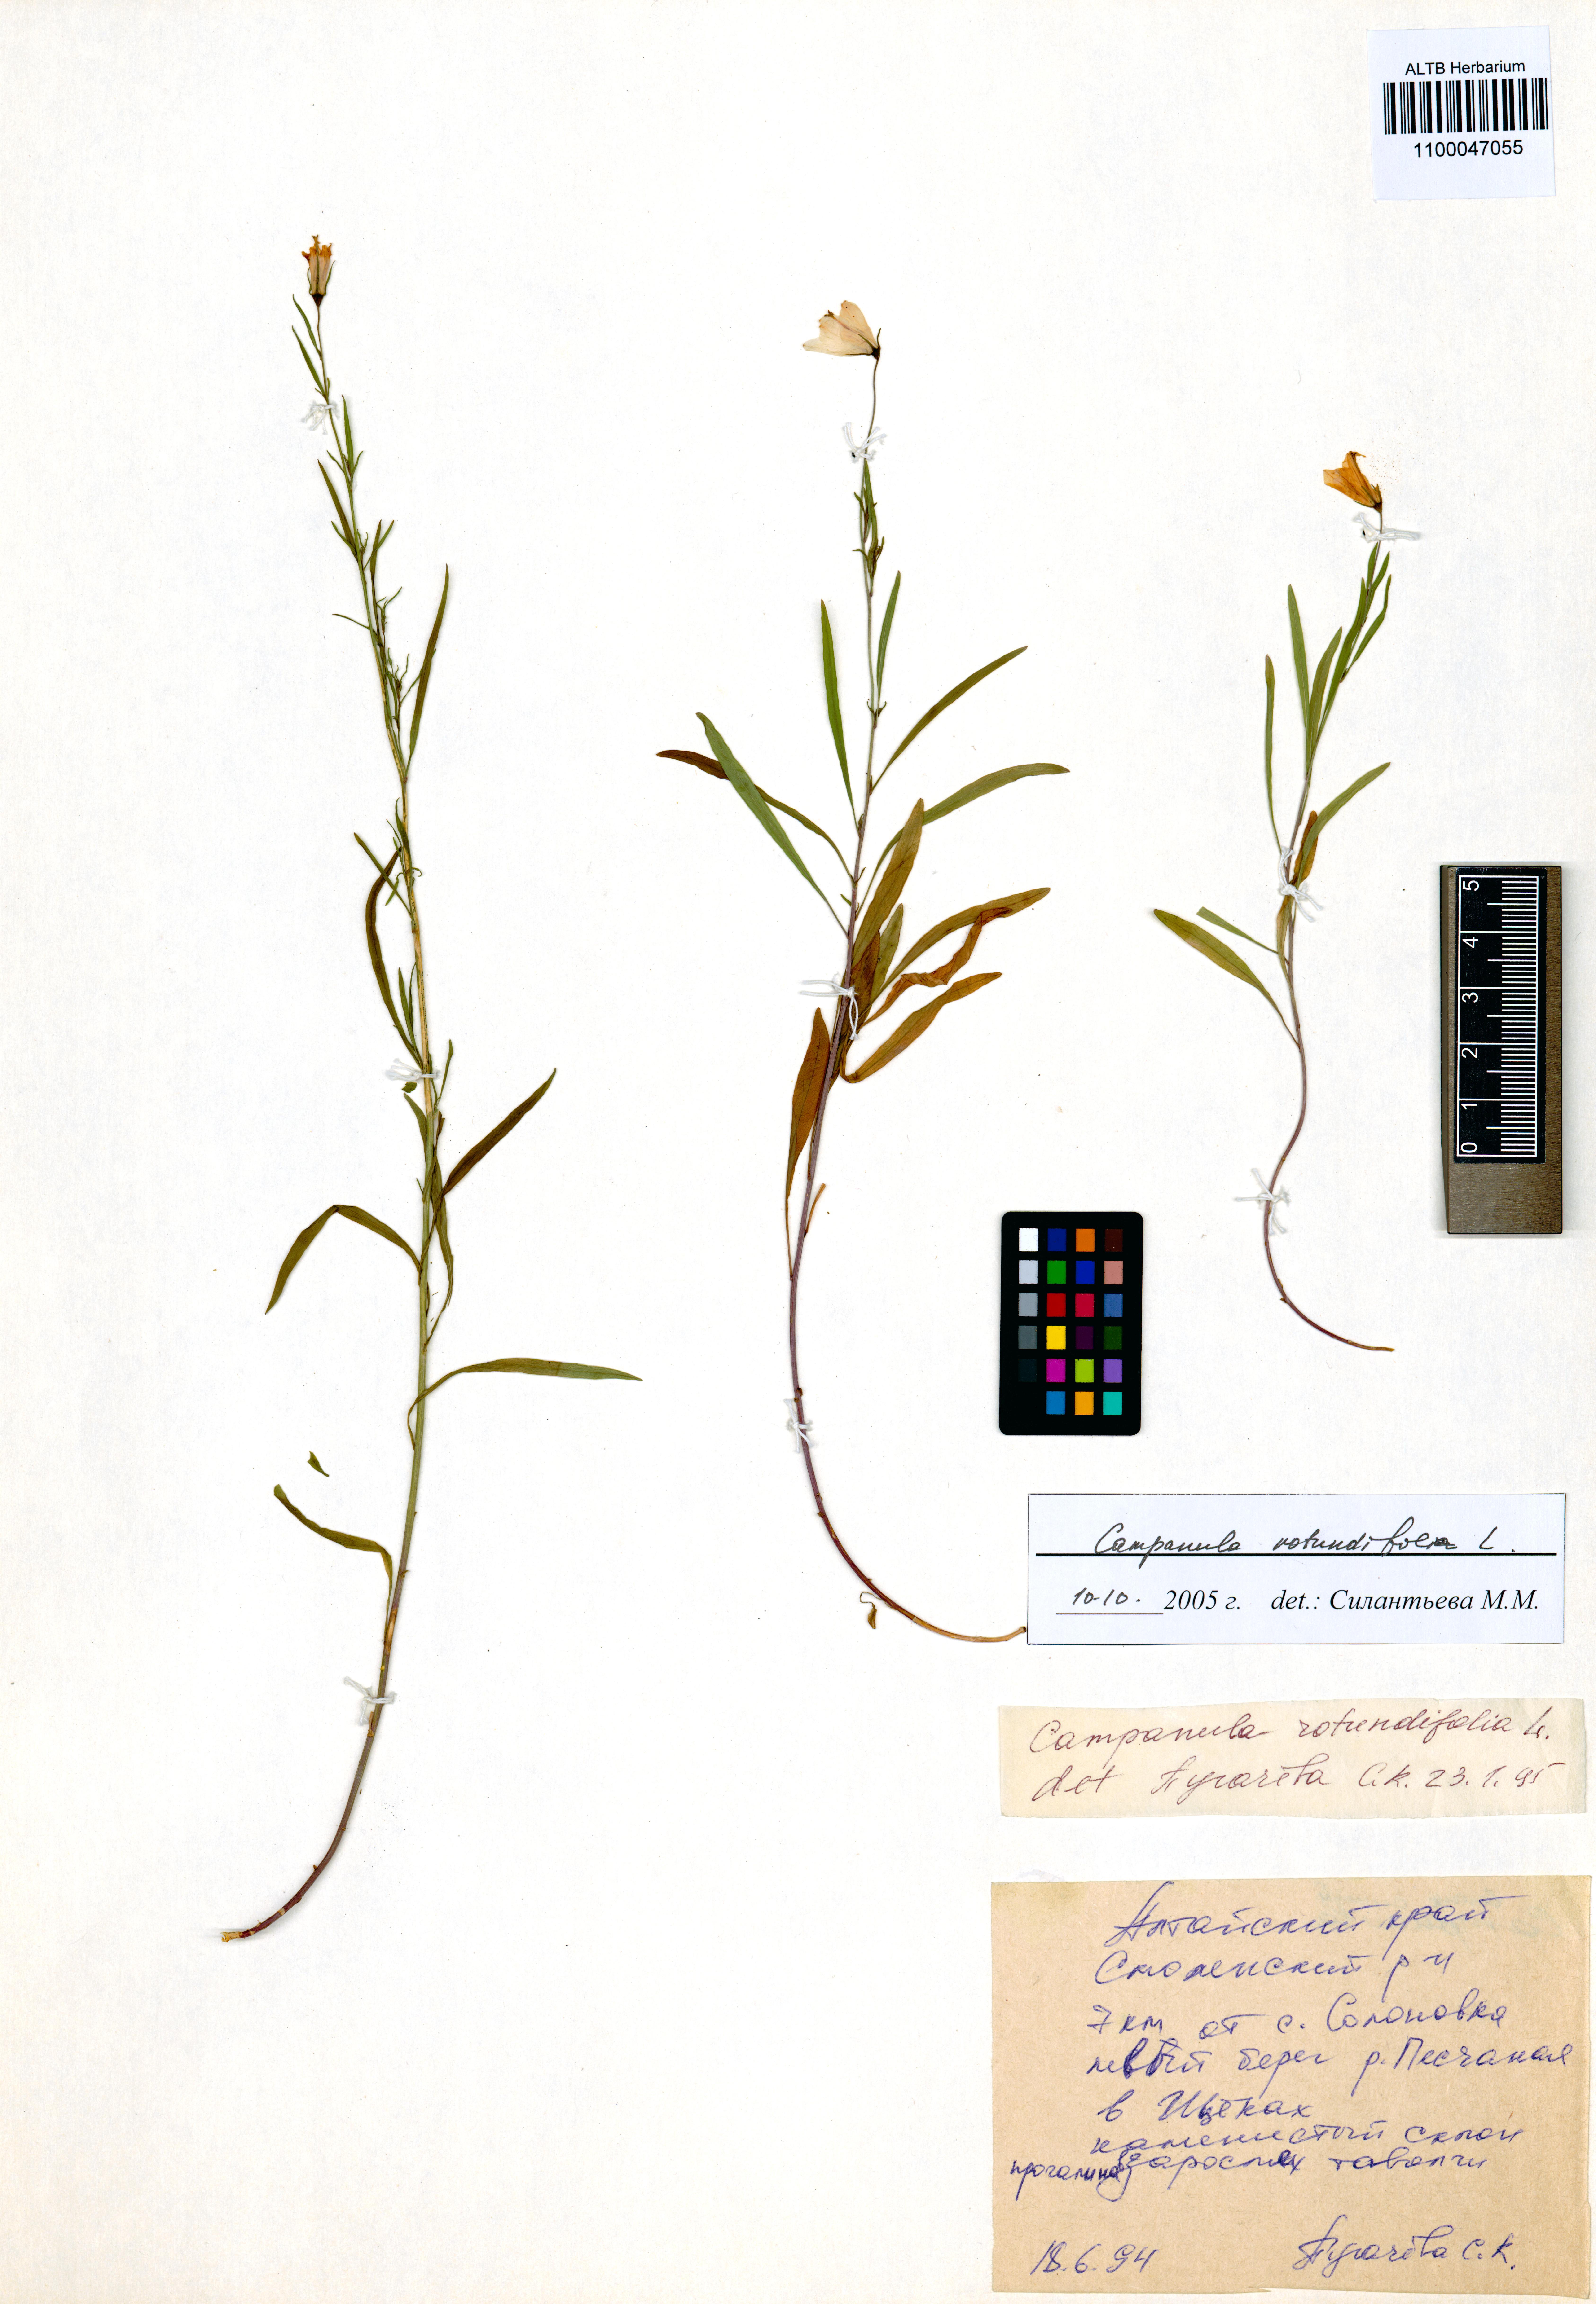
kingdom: Plantae
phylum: Tracheophyta
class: Magnoliopsida
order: Asterales
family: Campanulaceae
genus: Campanula
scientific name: Campanula rotundifolia
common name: Harebell
